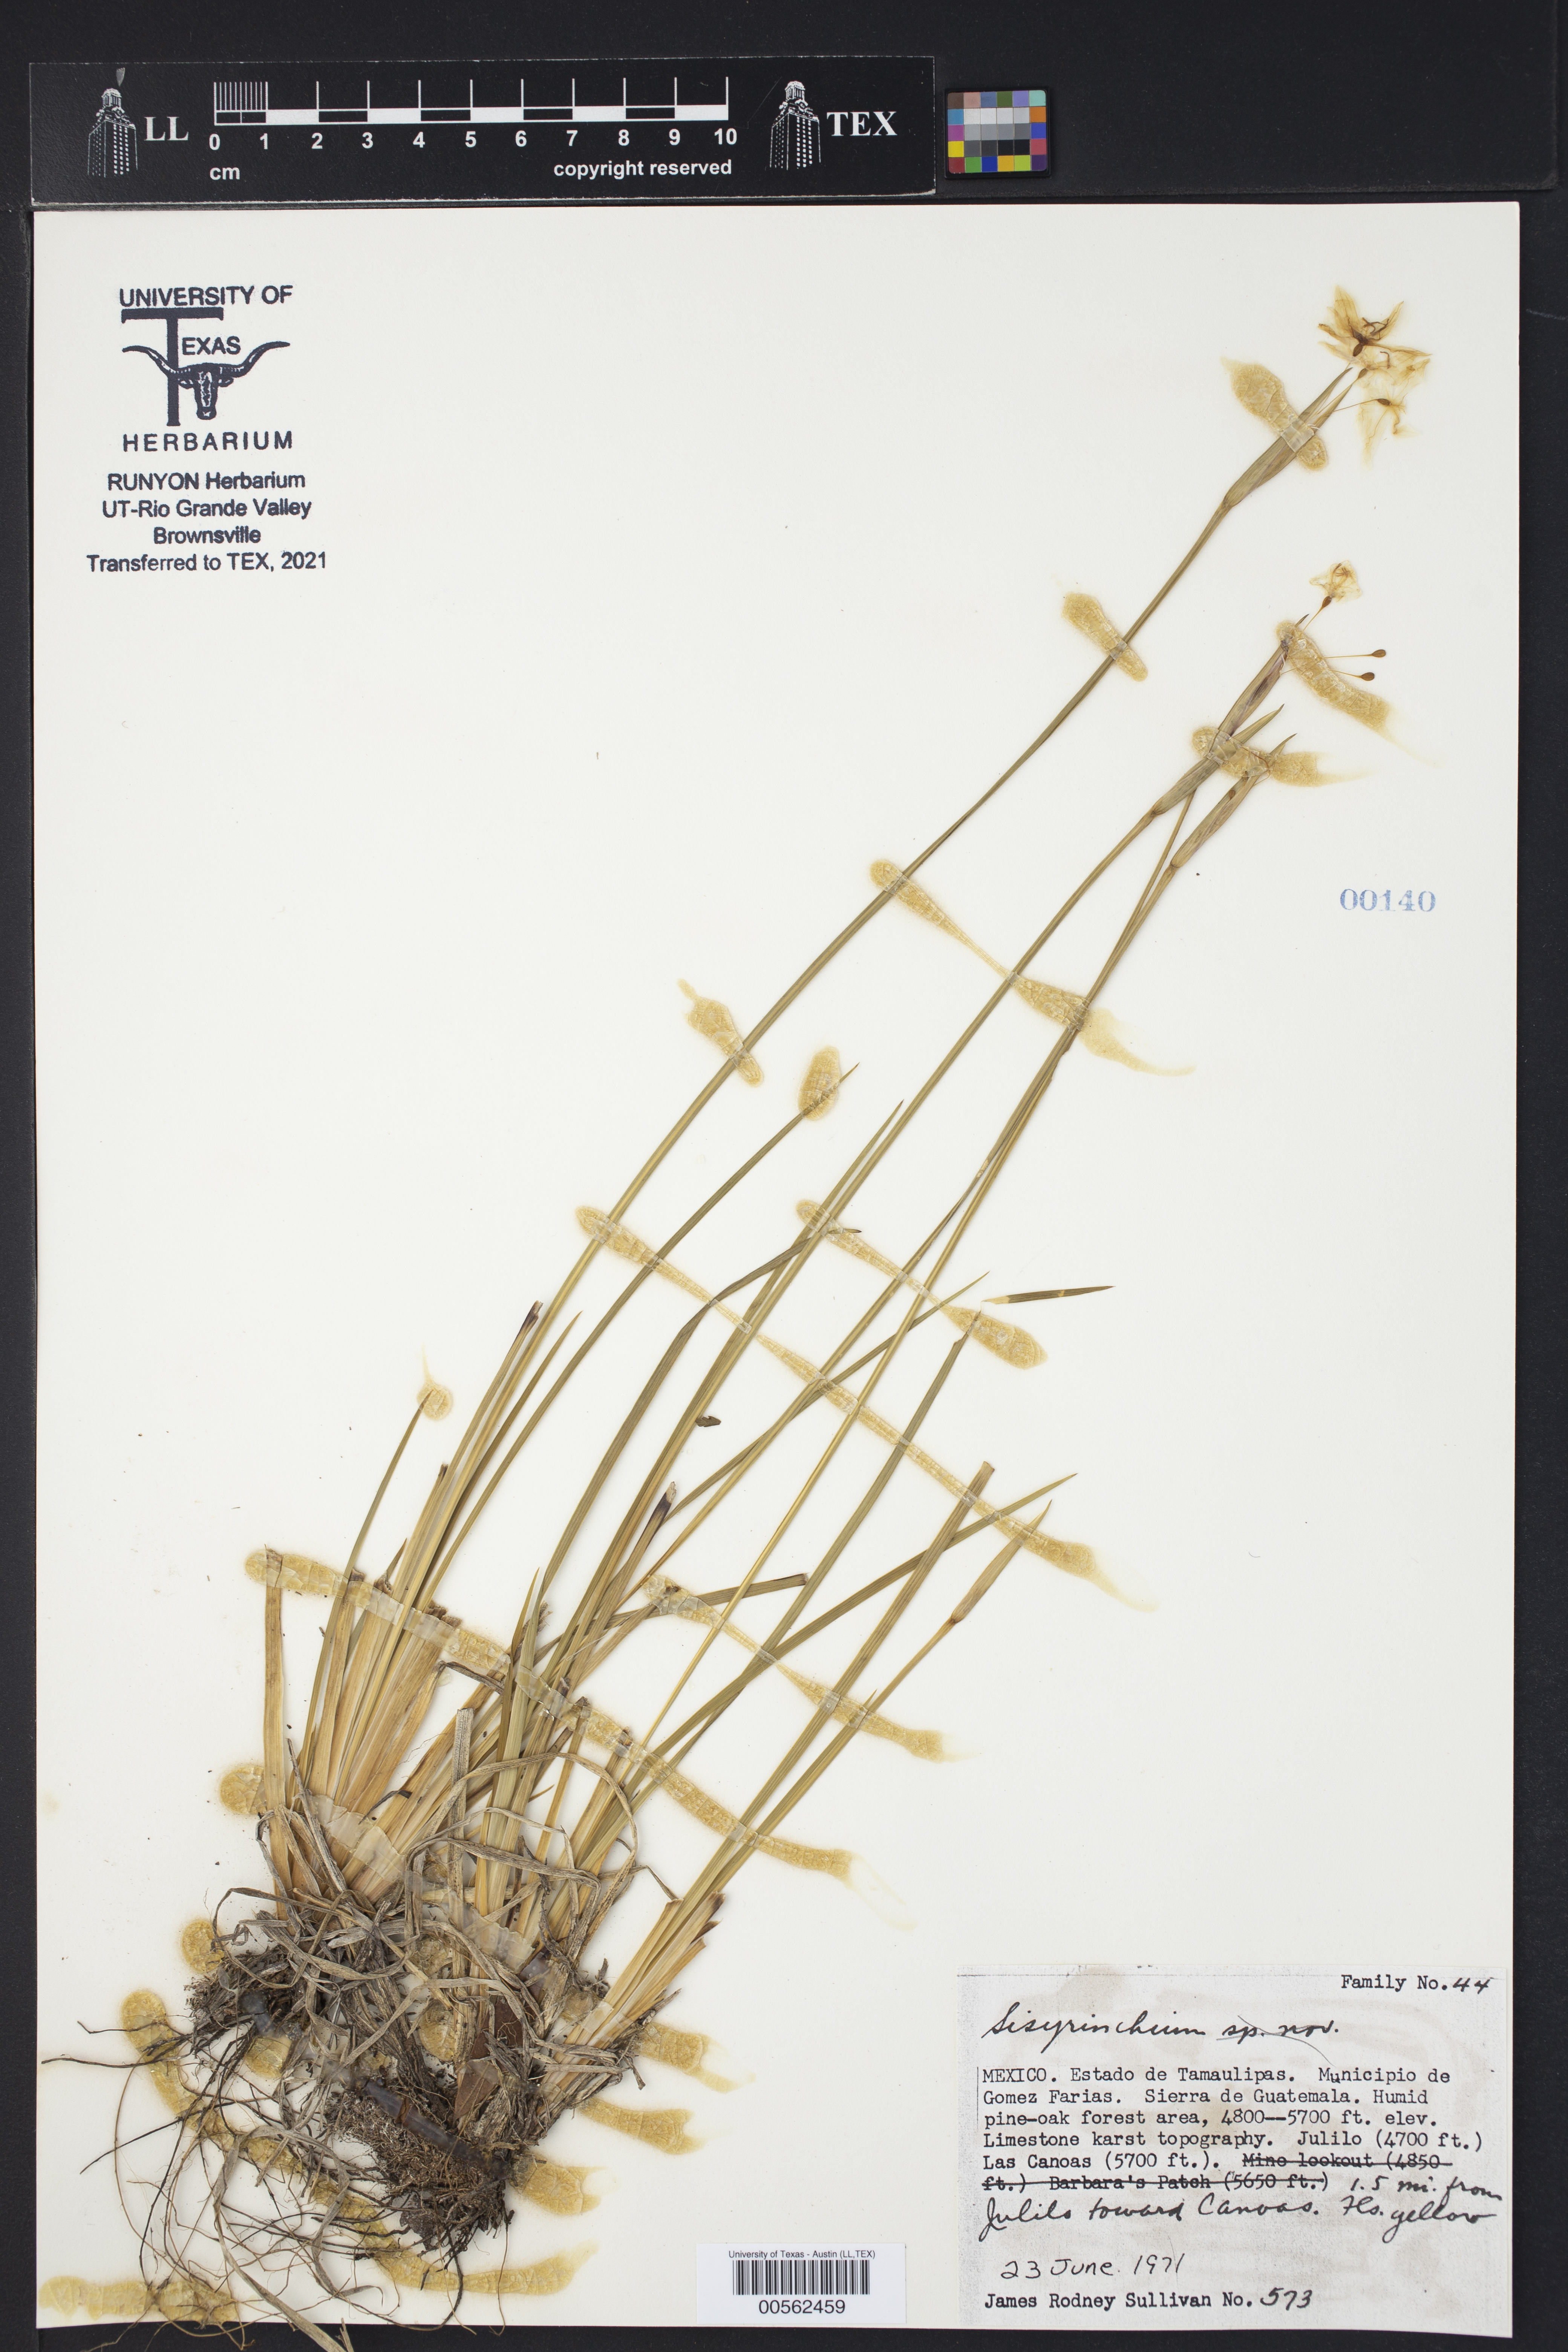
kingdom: Plantae
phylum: Tracheophyta
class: Liliopsida
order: Asparagales
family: Iridaceae
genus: Sisyrinchium
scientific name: Sisyrinchium
